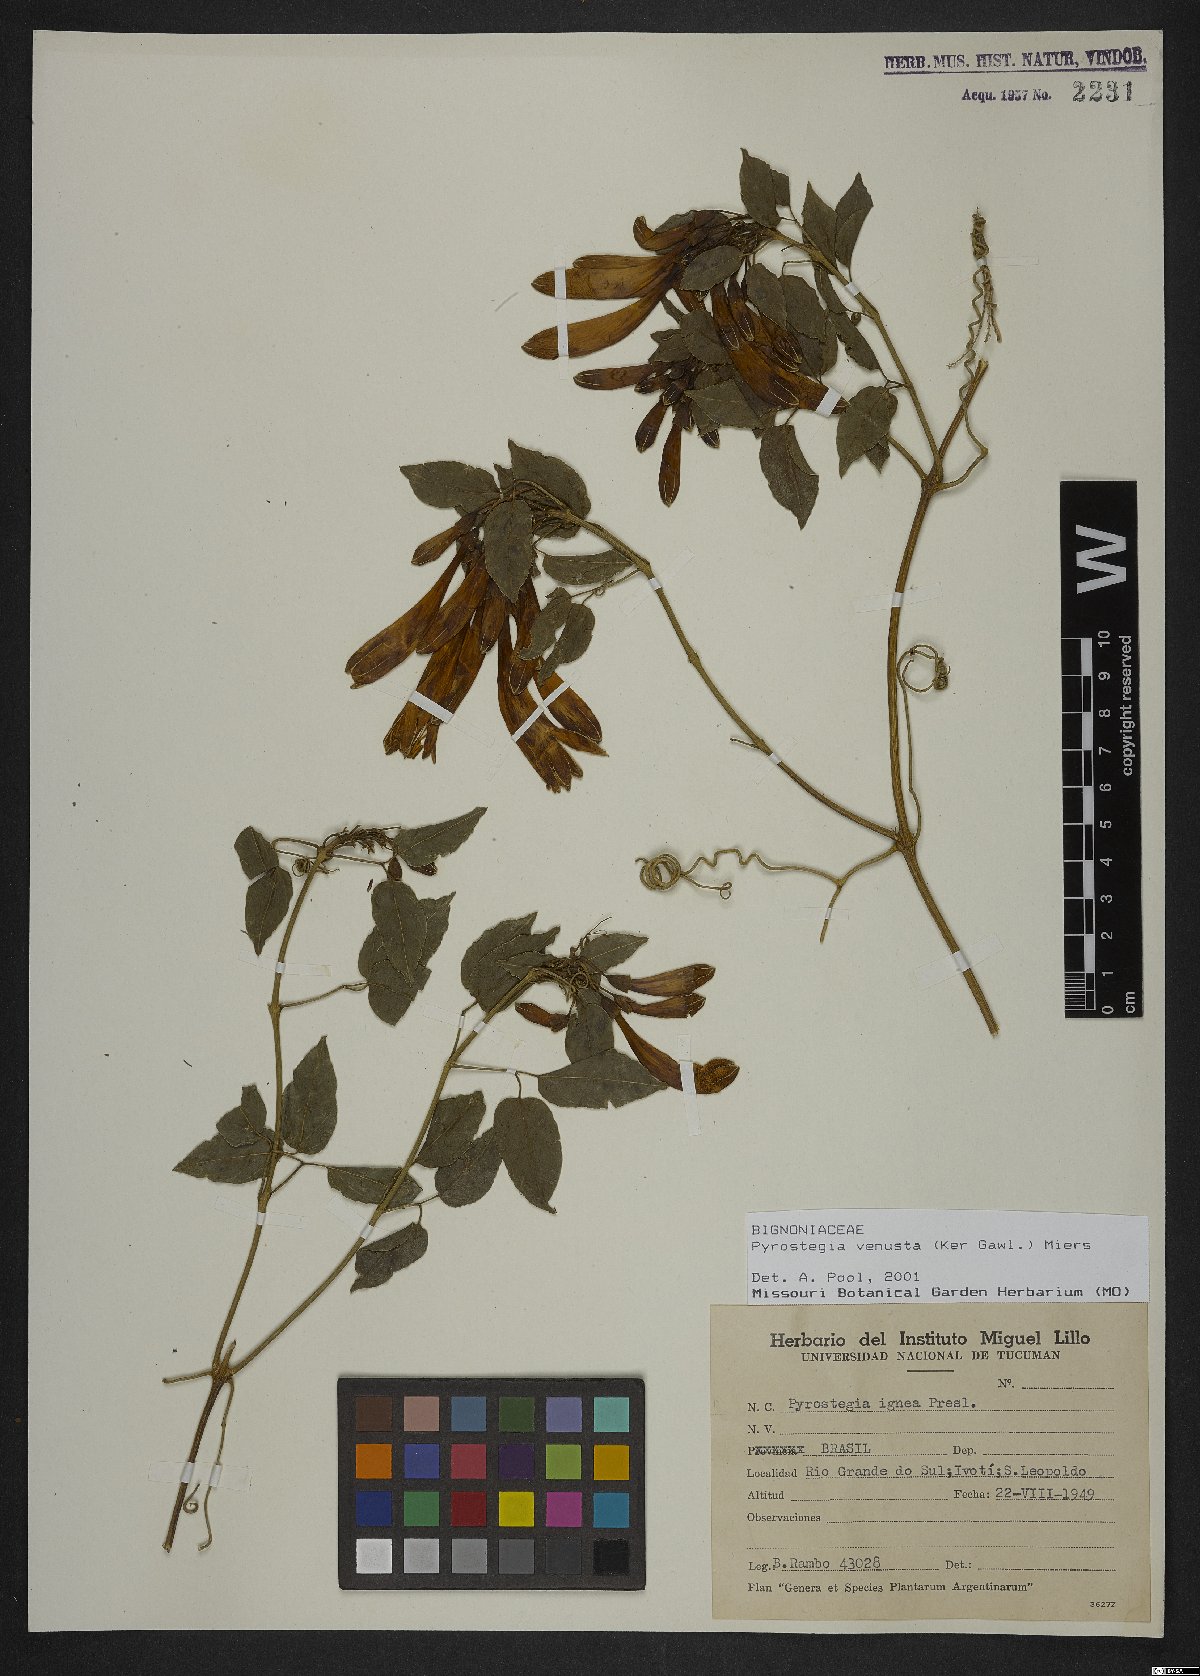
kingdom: Plantae
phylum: Tracheophyta
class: Magnoliopsida
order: Lamiales
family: Bignoniaceae
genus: Pyrostegia
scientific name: Pyrostegia venusta
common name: Flamevine
